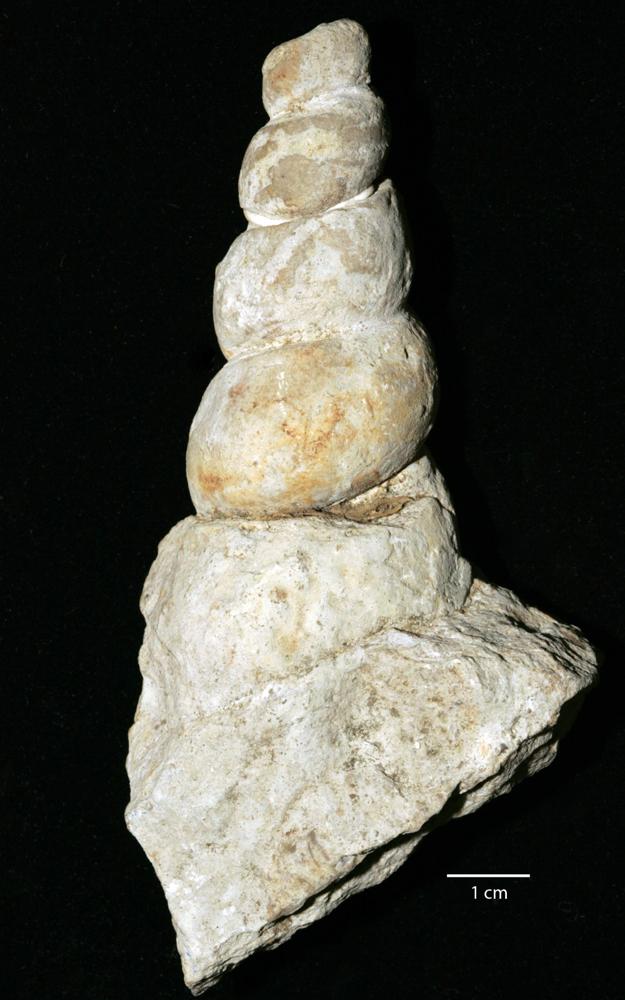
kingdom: Animalia
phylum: Mollusca
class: Gastropoda
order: Pleurotomariida
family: Murchisoniidae
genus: Murchisonia
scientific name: Murchisonia rudis
